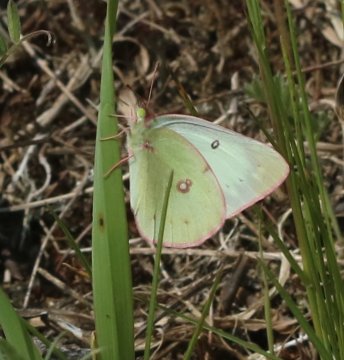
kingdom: Animalia
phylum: Arthropoda
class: Insecta
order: Lepidoptera
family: Pieridae
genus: Colias
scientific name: Colias philodice
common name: Clouded Sulphur
